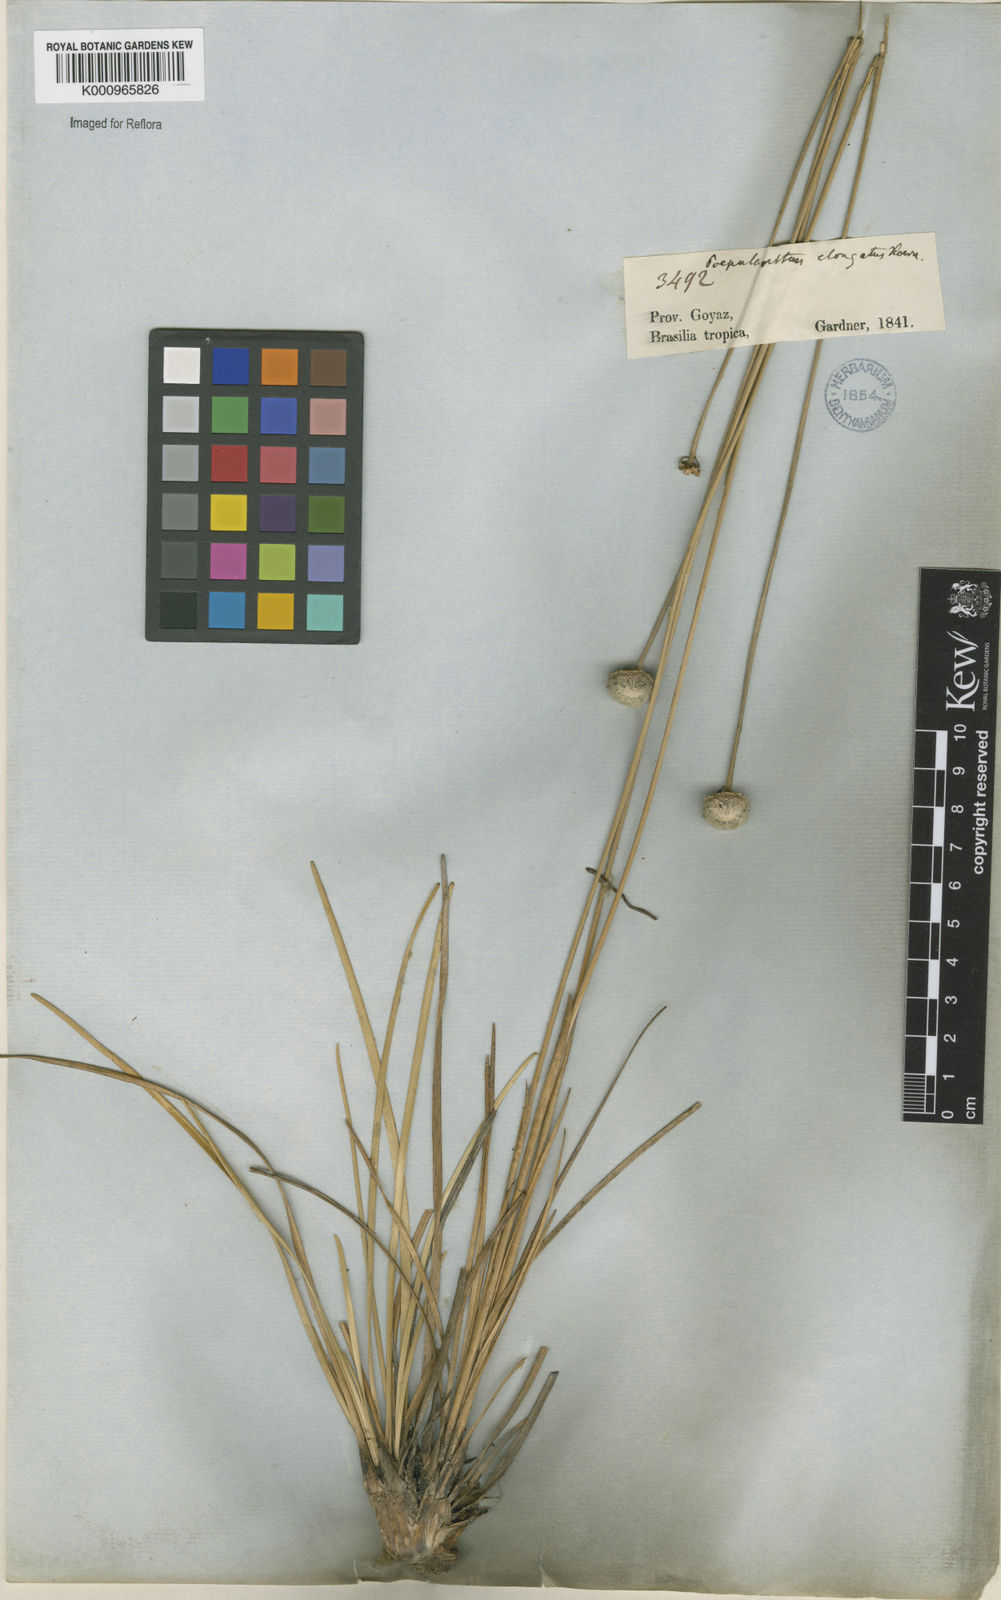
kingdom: Plantae
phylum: Tracheophyta
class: Liliopsida
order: Poales
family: Eriocaulaceae
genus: Paepalanthus
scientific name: Paepalanthus
